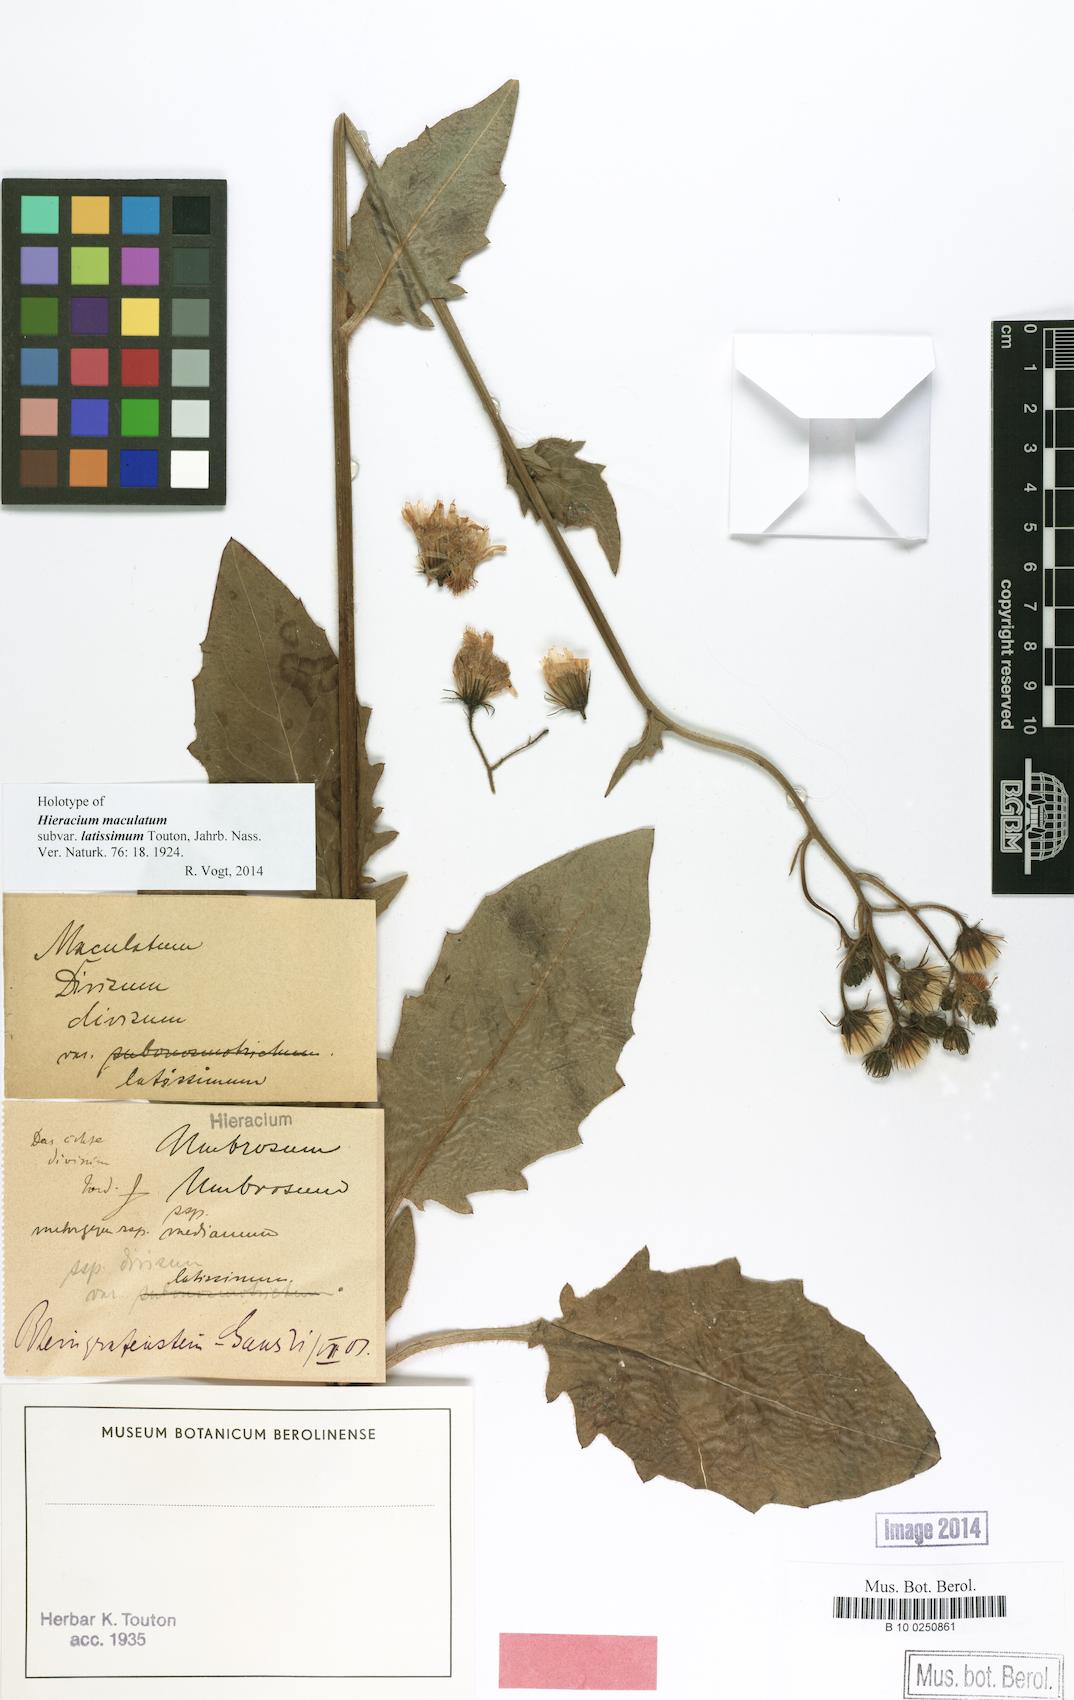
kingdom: Plantae
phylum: Tracheophyta
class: Magnoliopsida
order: Asterales
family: Asteraceae
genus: Hieracium
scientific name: Hieracium maculatum
